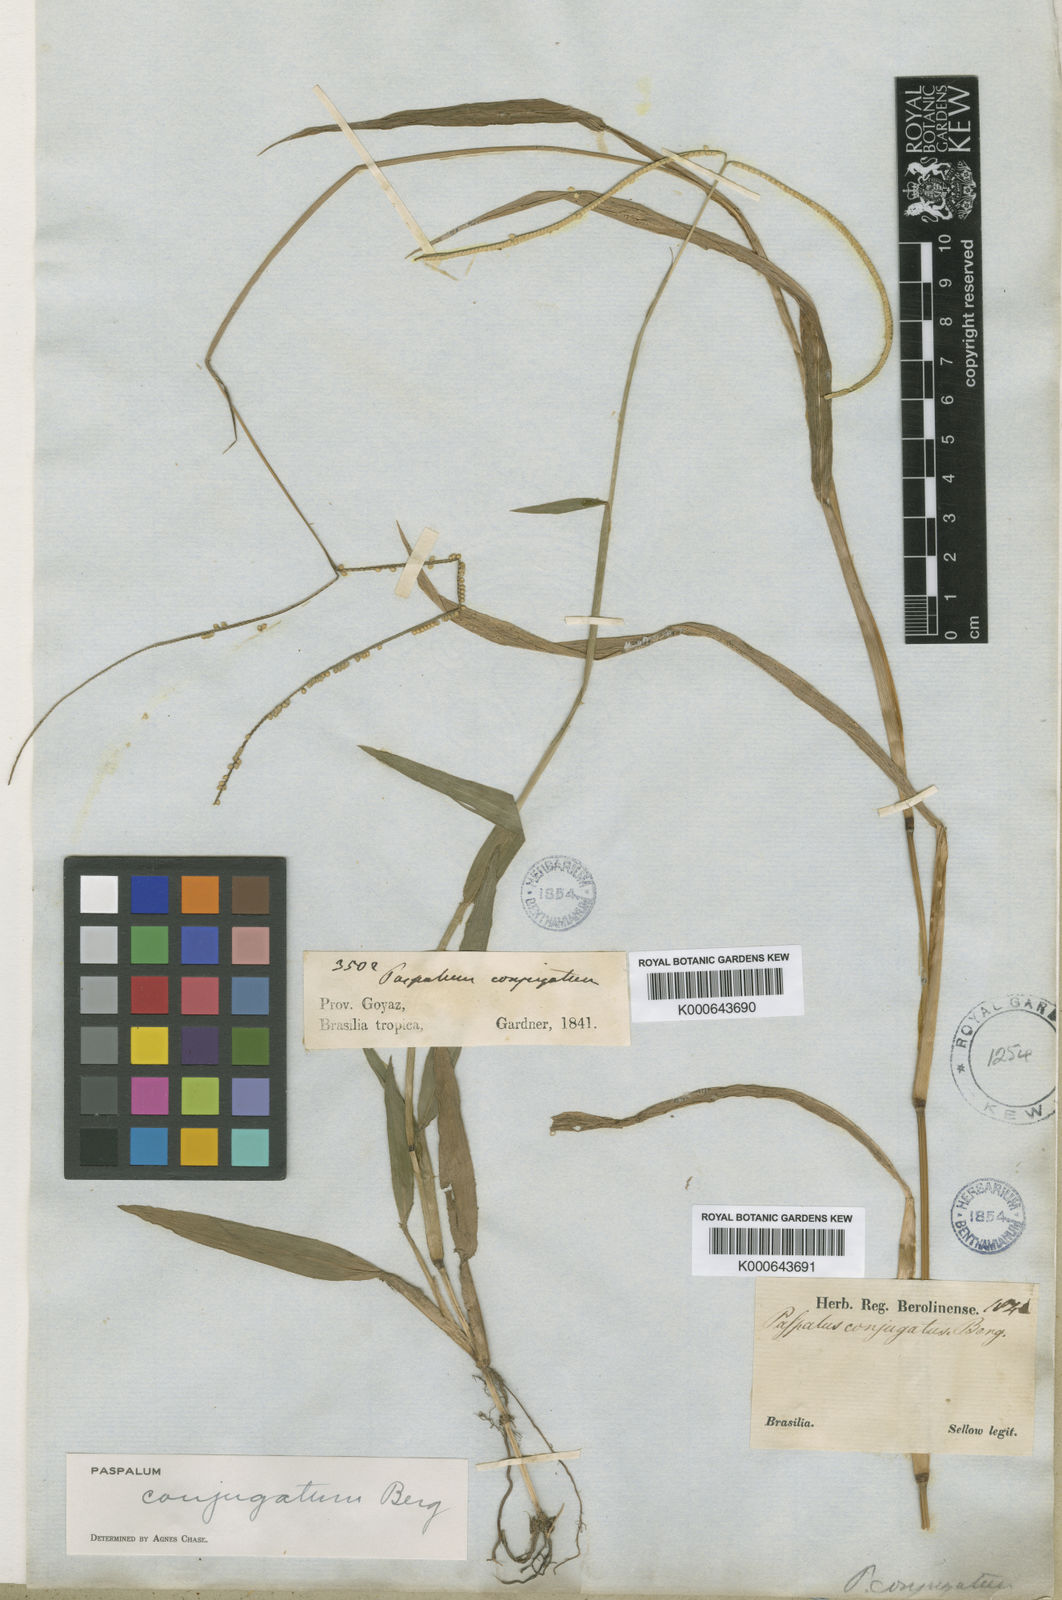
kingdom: Plantae
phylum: Tracheophyta
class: Liliopsida
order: Poales
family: Poaceae
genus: Paspalum
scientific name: Paspalum conjugatum
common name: Hilograss
